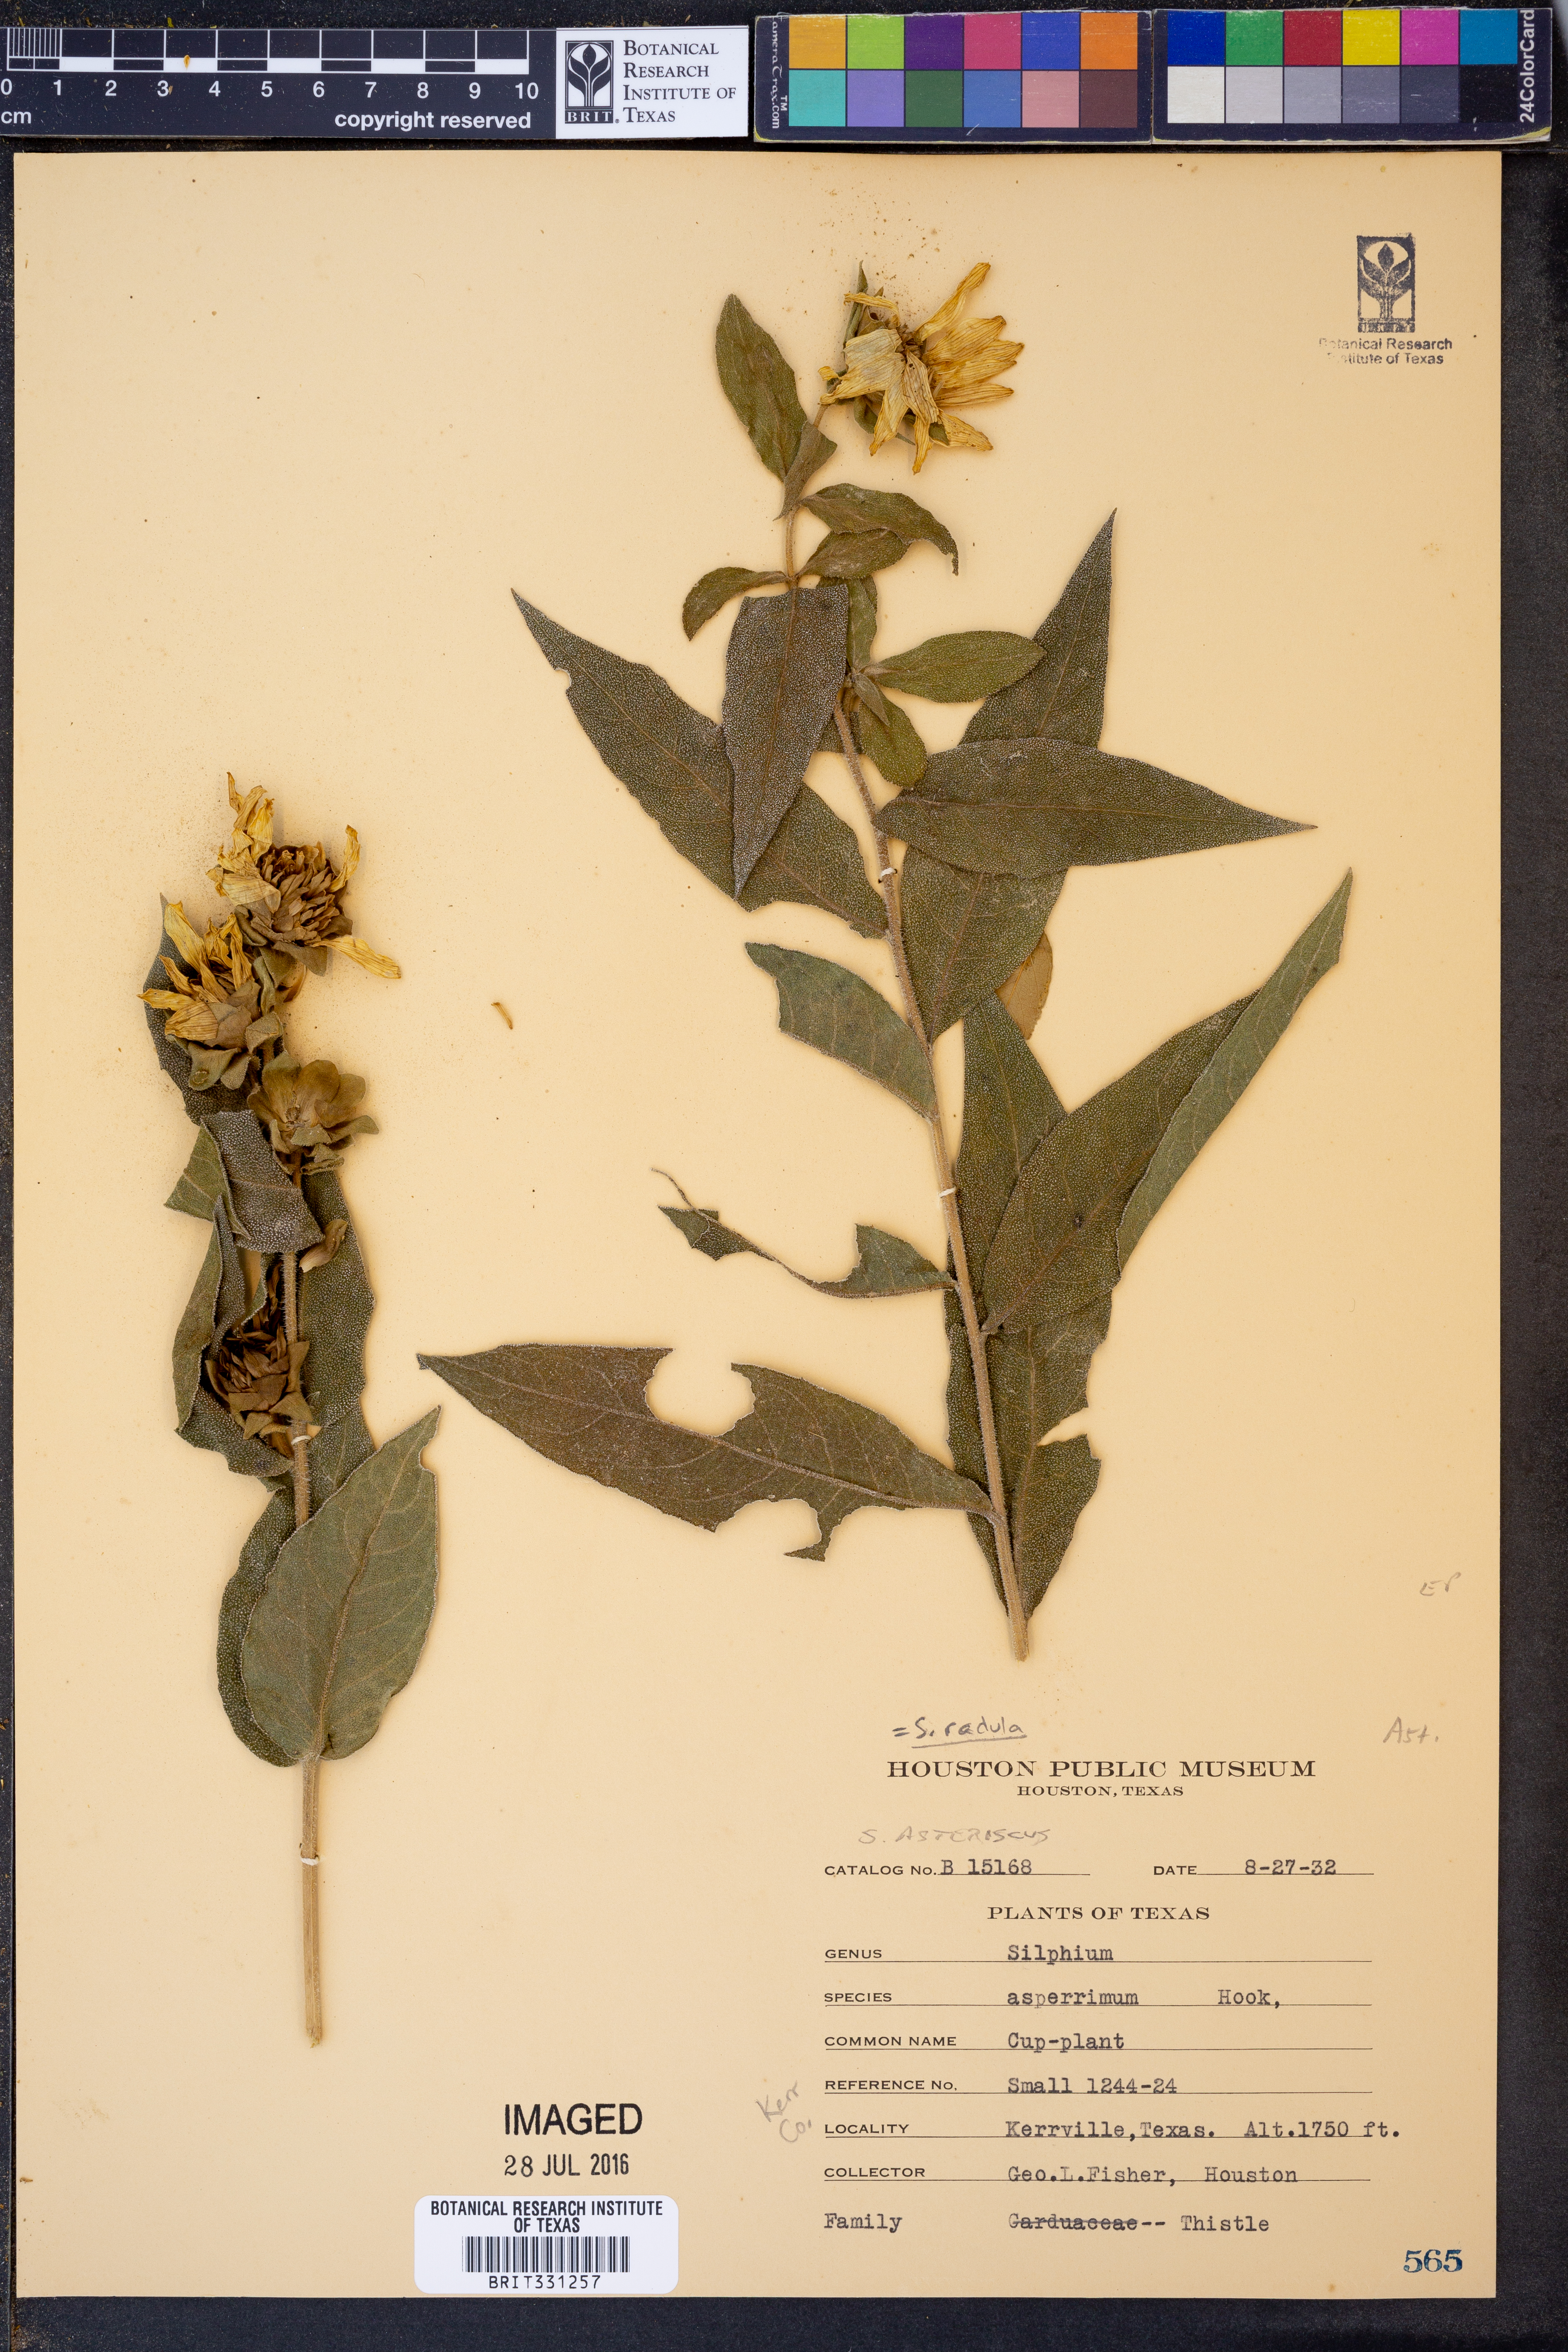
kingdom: Plantae
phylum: Tracheophyta
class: Magnoliopsida
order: Asterales
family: Asteraceae
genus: Silphium
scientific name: Silphium radula
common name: Roughleaf rosinweed
